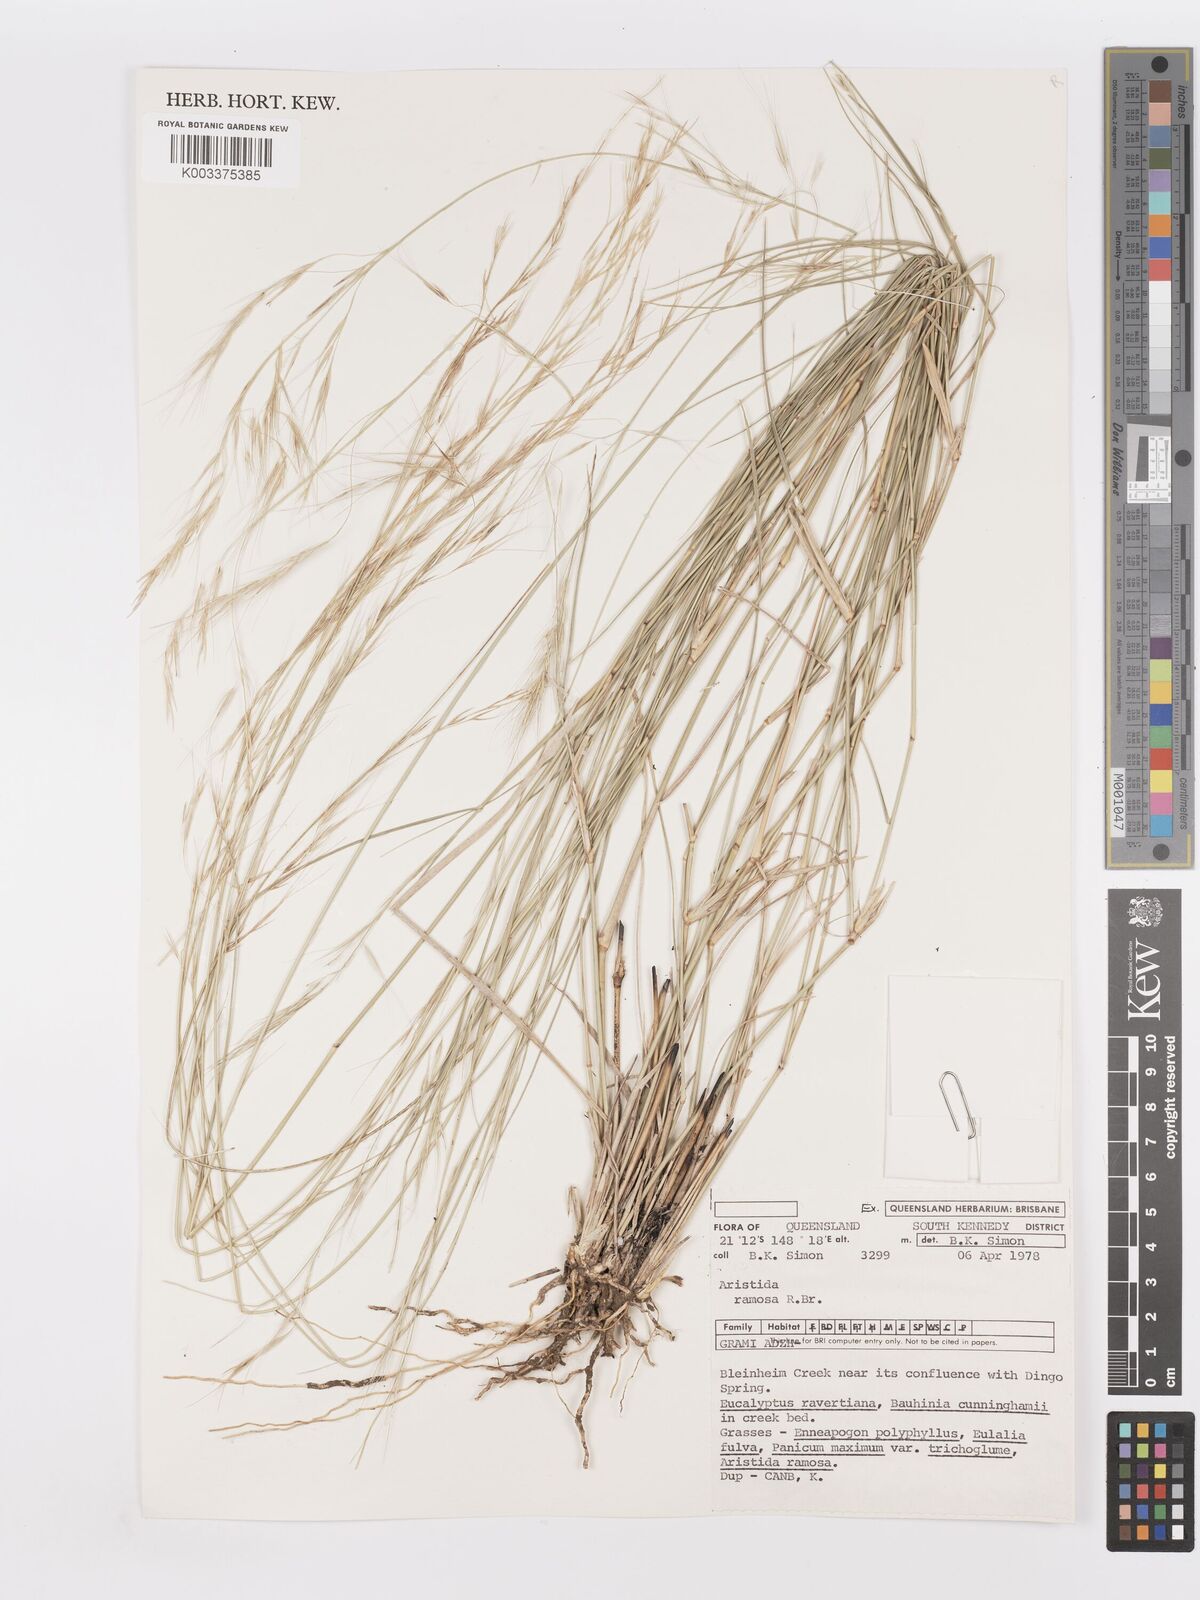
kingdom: Plantae
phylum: Tracheophyta
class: Liliopsida
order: Poales
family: Poaceae
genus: Aristida
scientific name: Aristida ramosa
